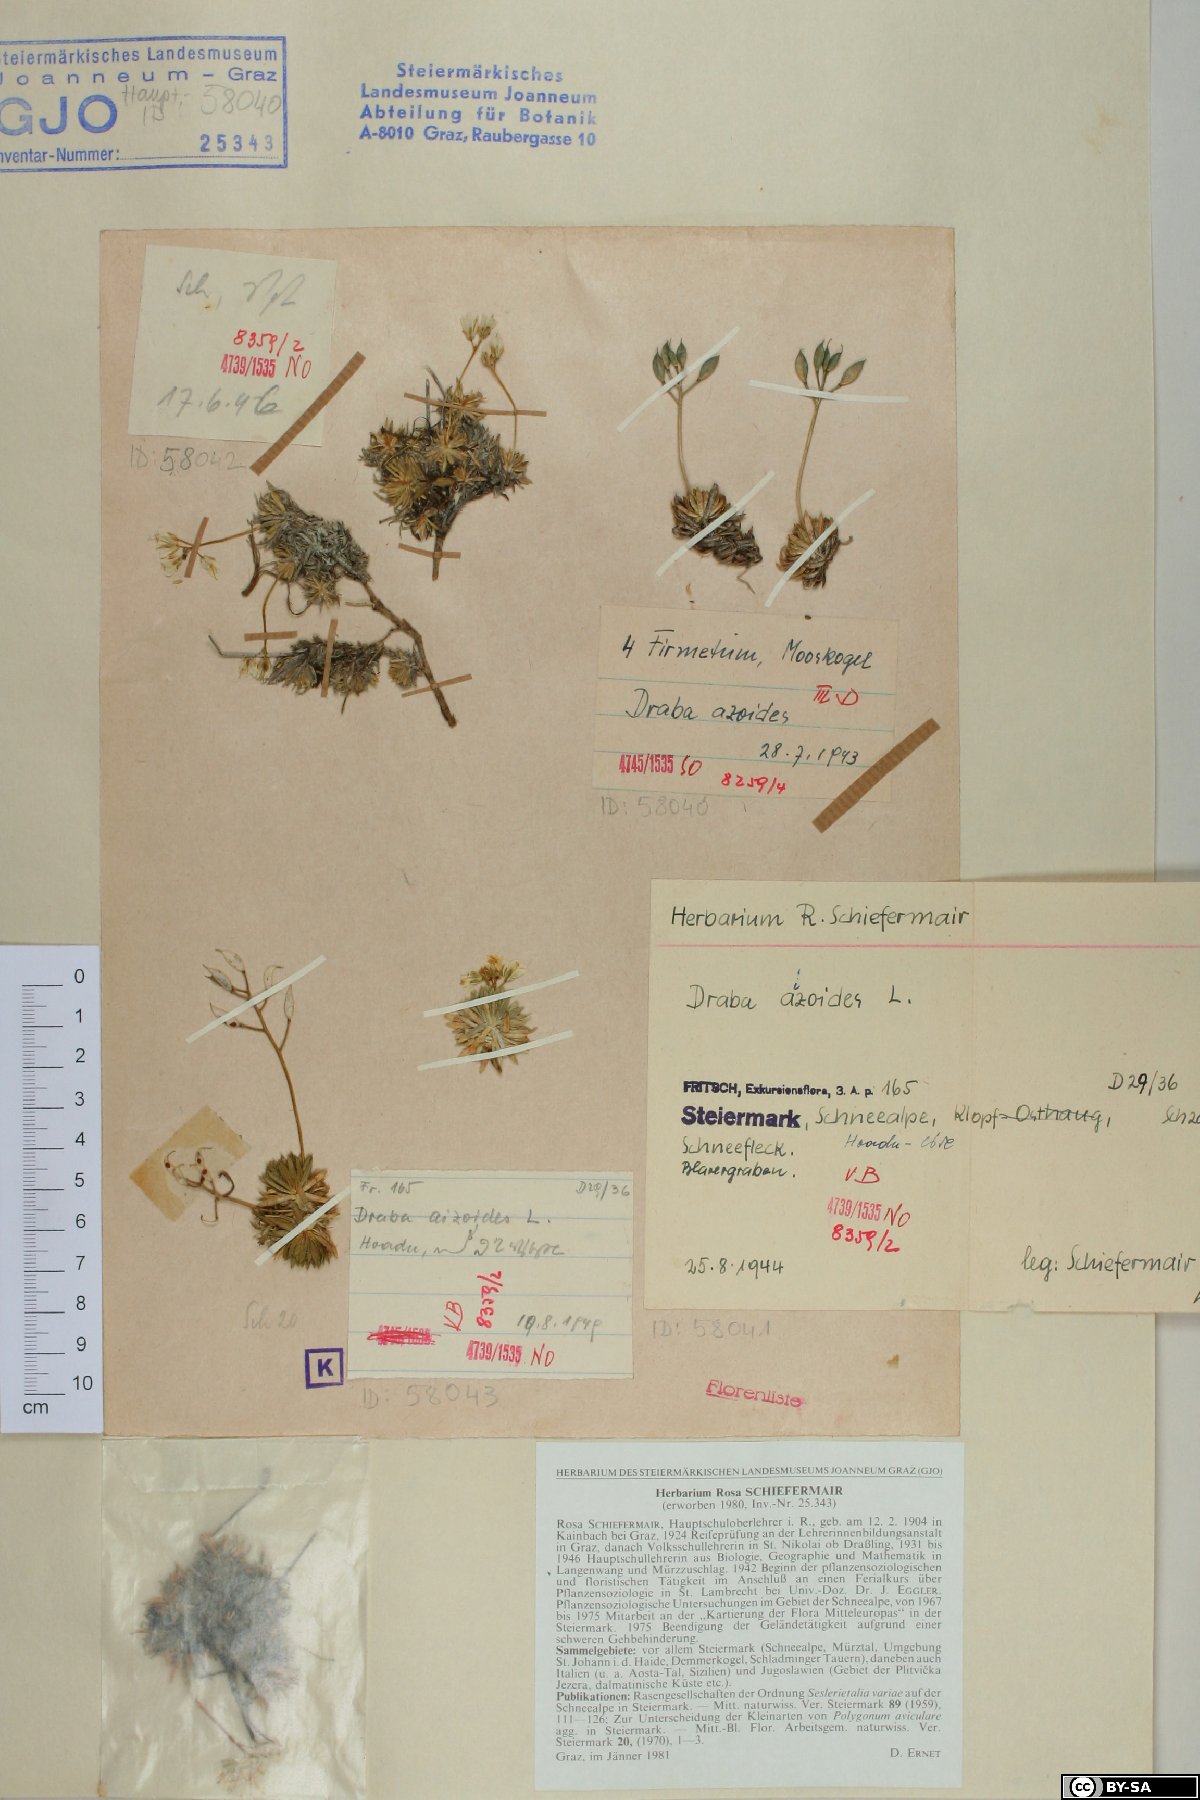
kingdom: Plantae
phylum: Tracheophyta
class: Magnoliopsida
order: Brassicales
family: Brassicaceae
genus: Draba
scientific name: Draba aizoides
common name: Yellow whitlowgrass
